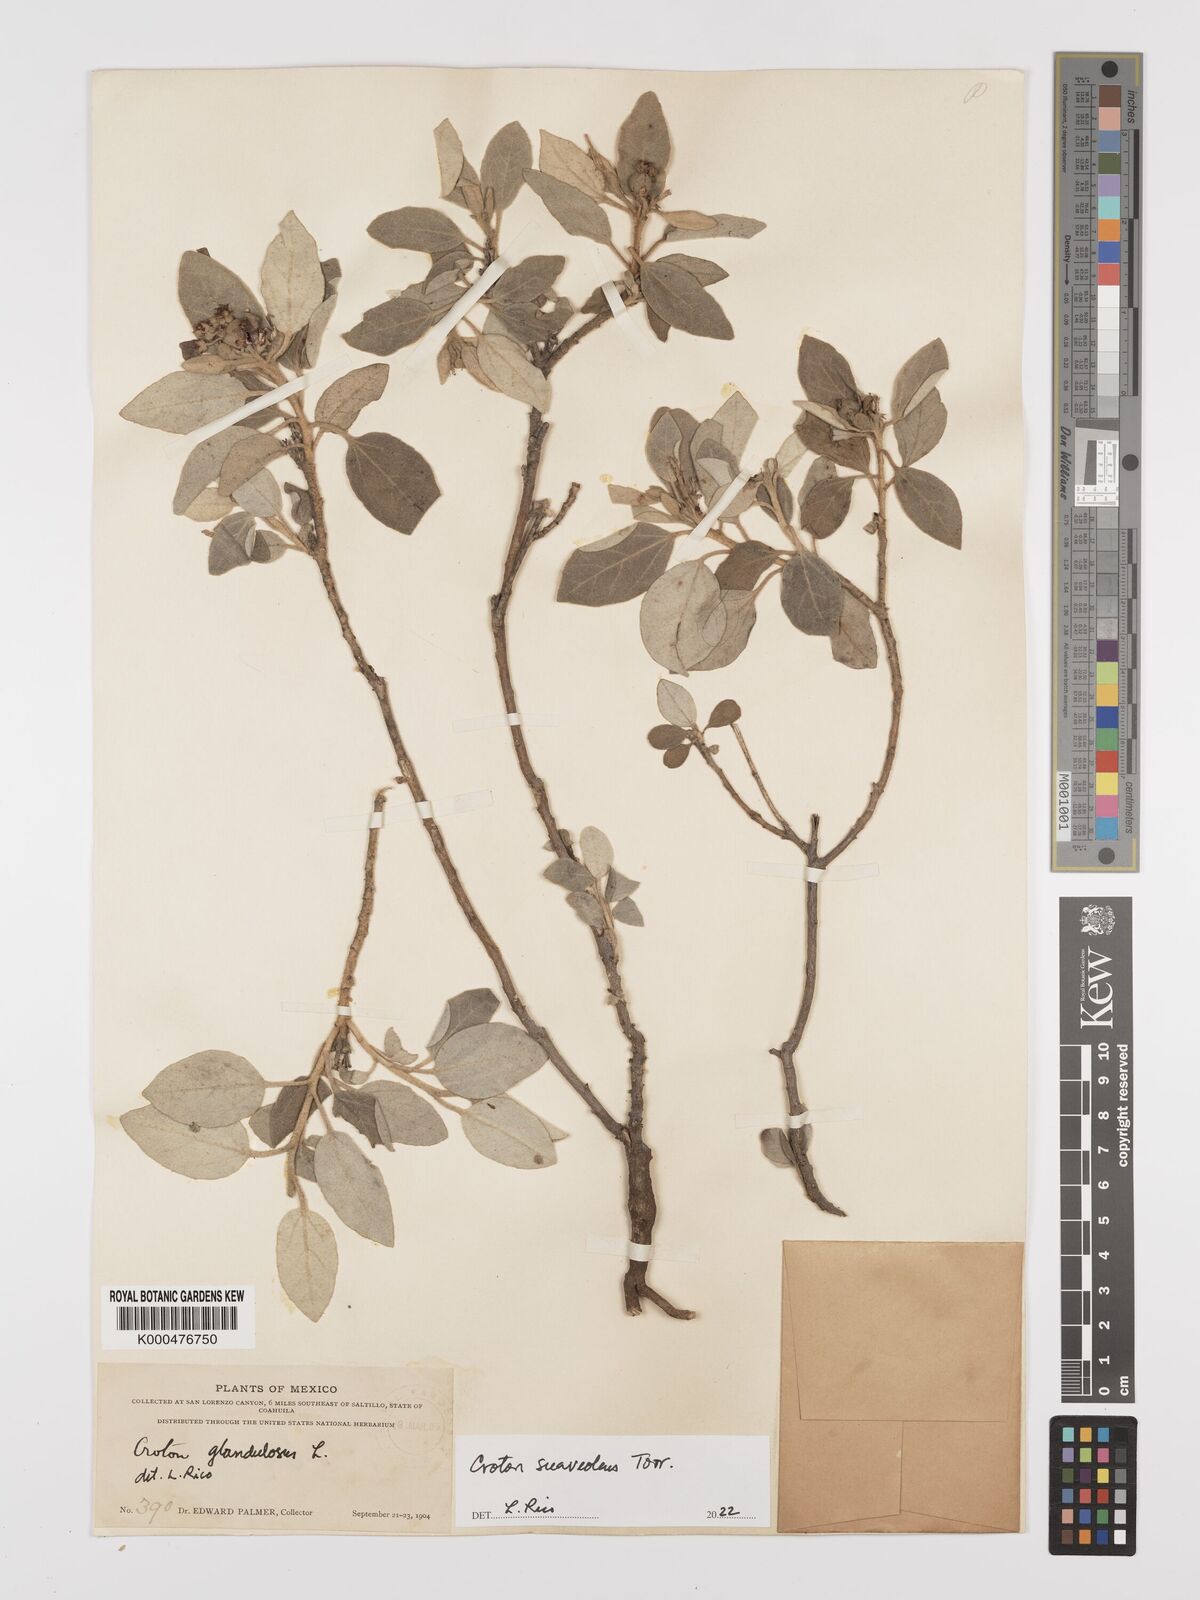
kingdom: Plantae
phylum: Tracheophyta
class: Magnoliopsida
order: Malpighiales
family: Euphorbiaceae
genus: Croton
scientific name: Croton suaveolens
